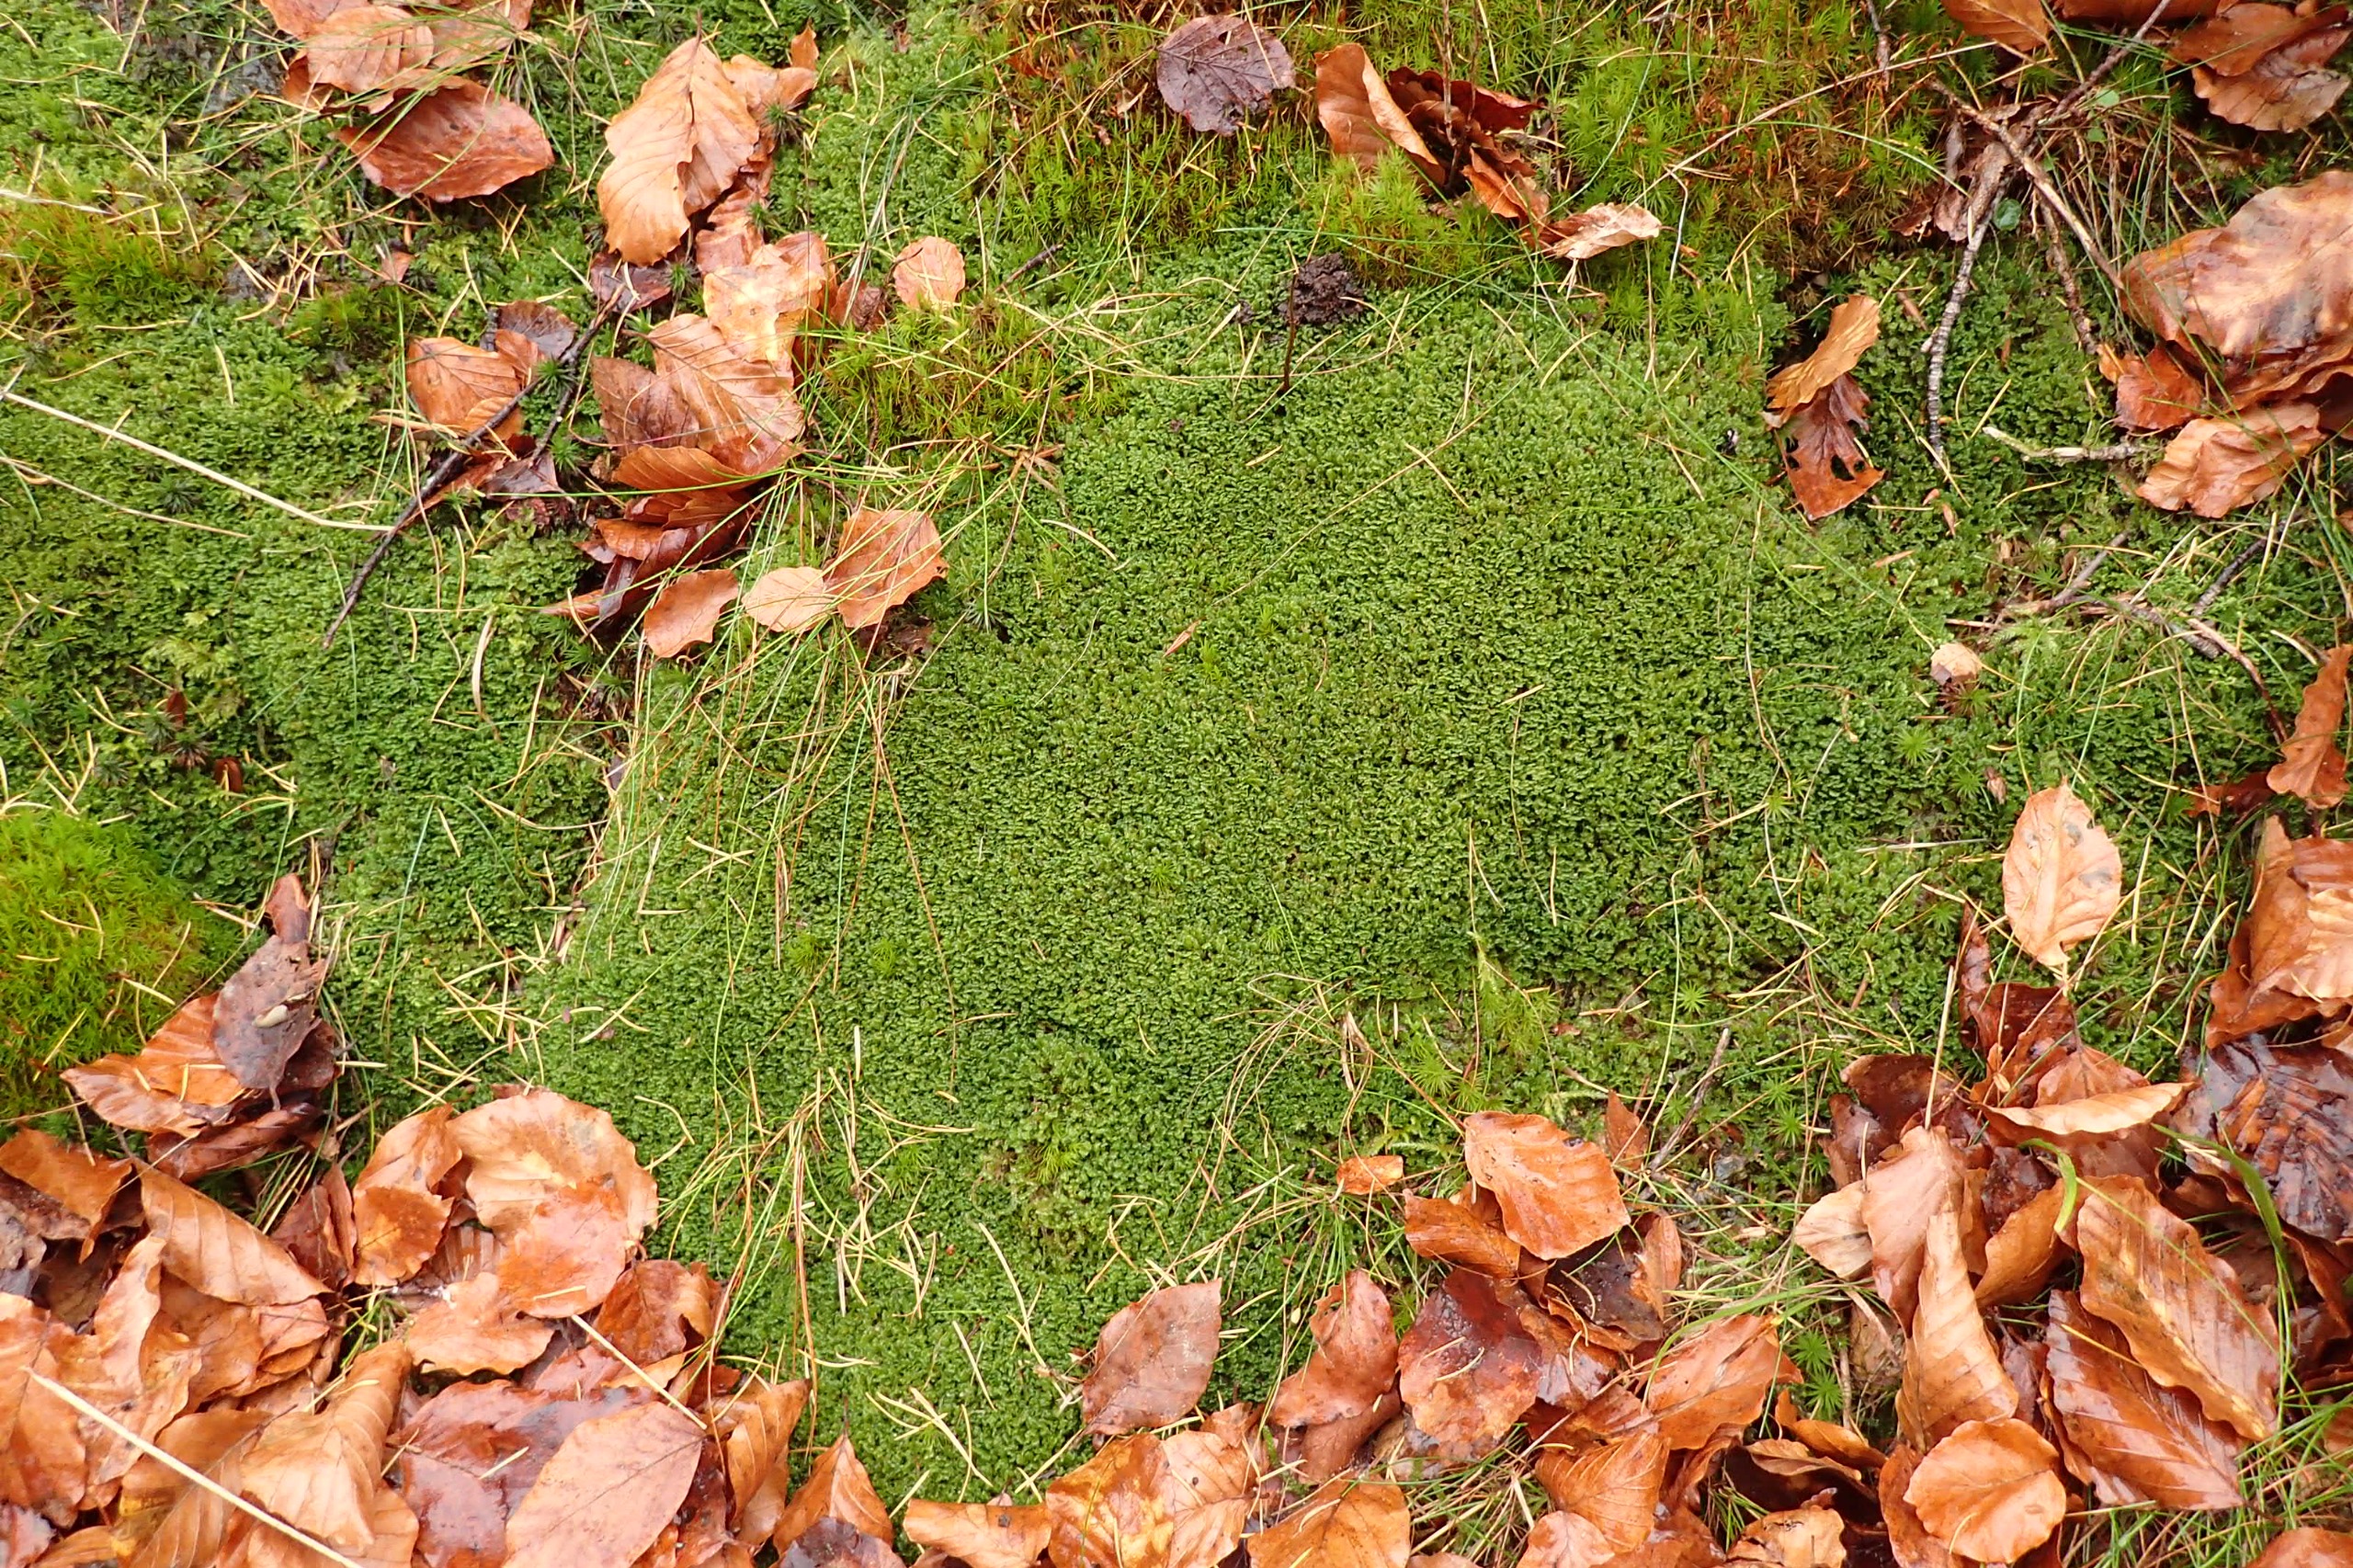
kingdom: Plantae
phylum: Marchantiophyta
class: Jungermanniopsida
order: Jungermanniales
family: Scapaniaceae
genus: Diplophyllum
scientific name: Diplophyllum albicans
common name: Stribet dobbeltblad
